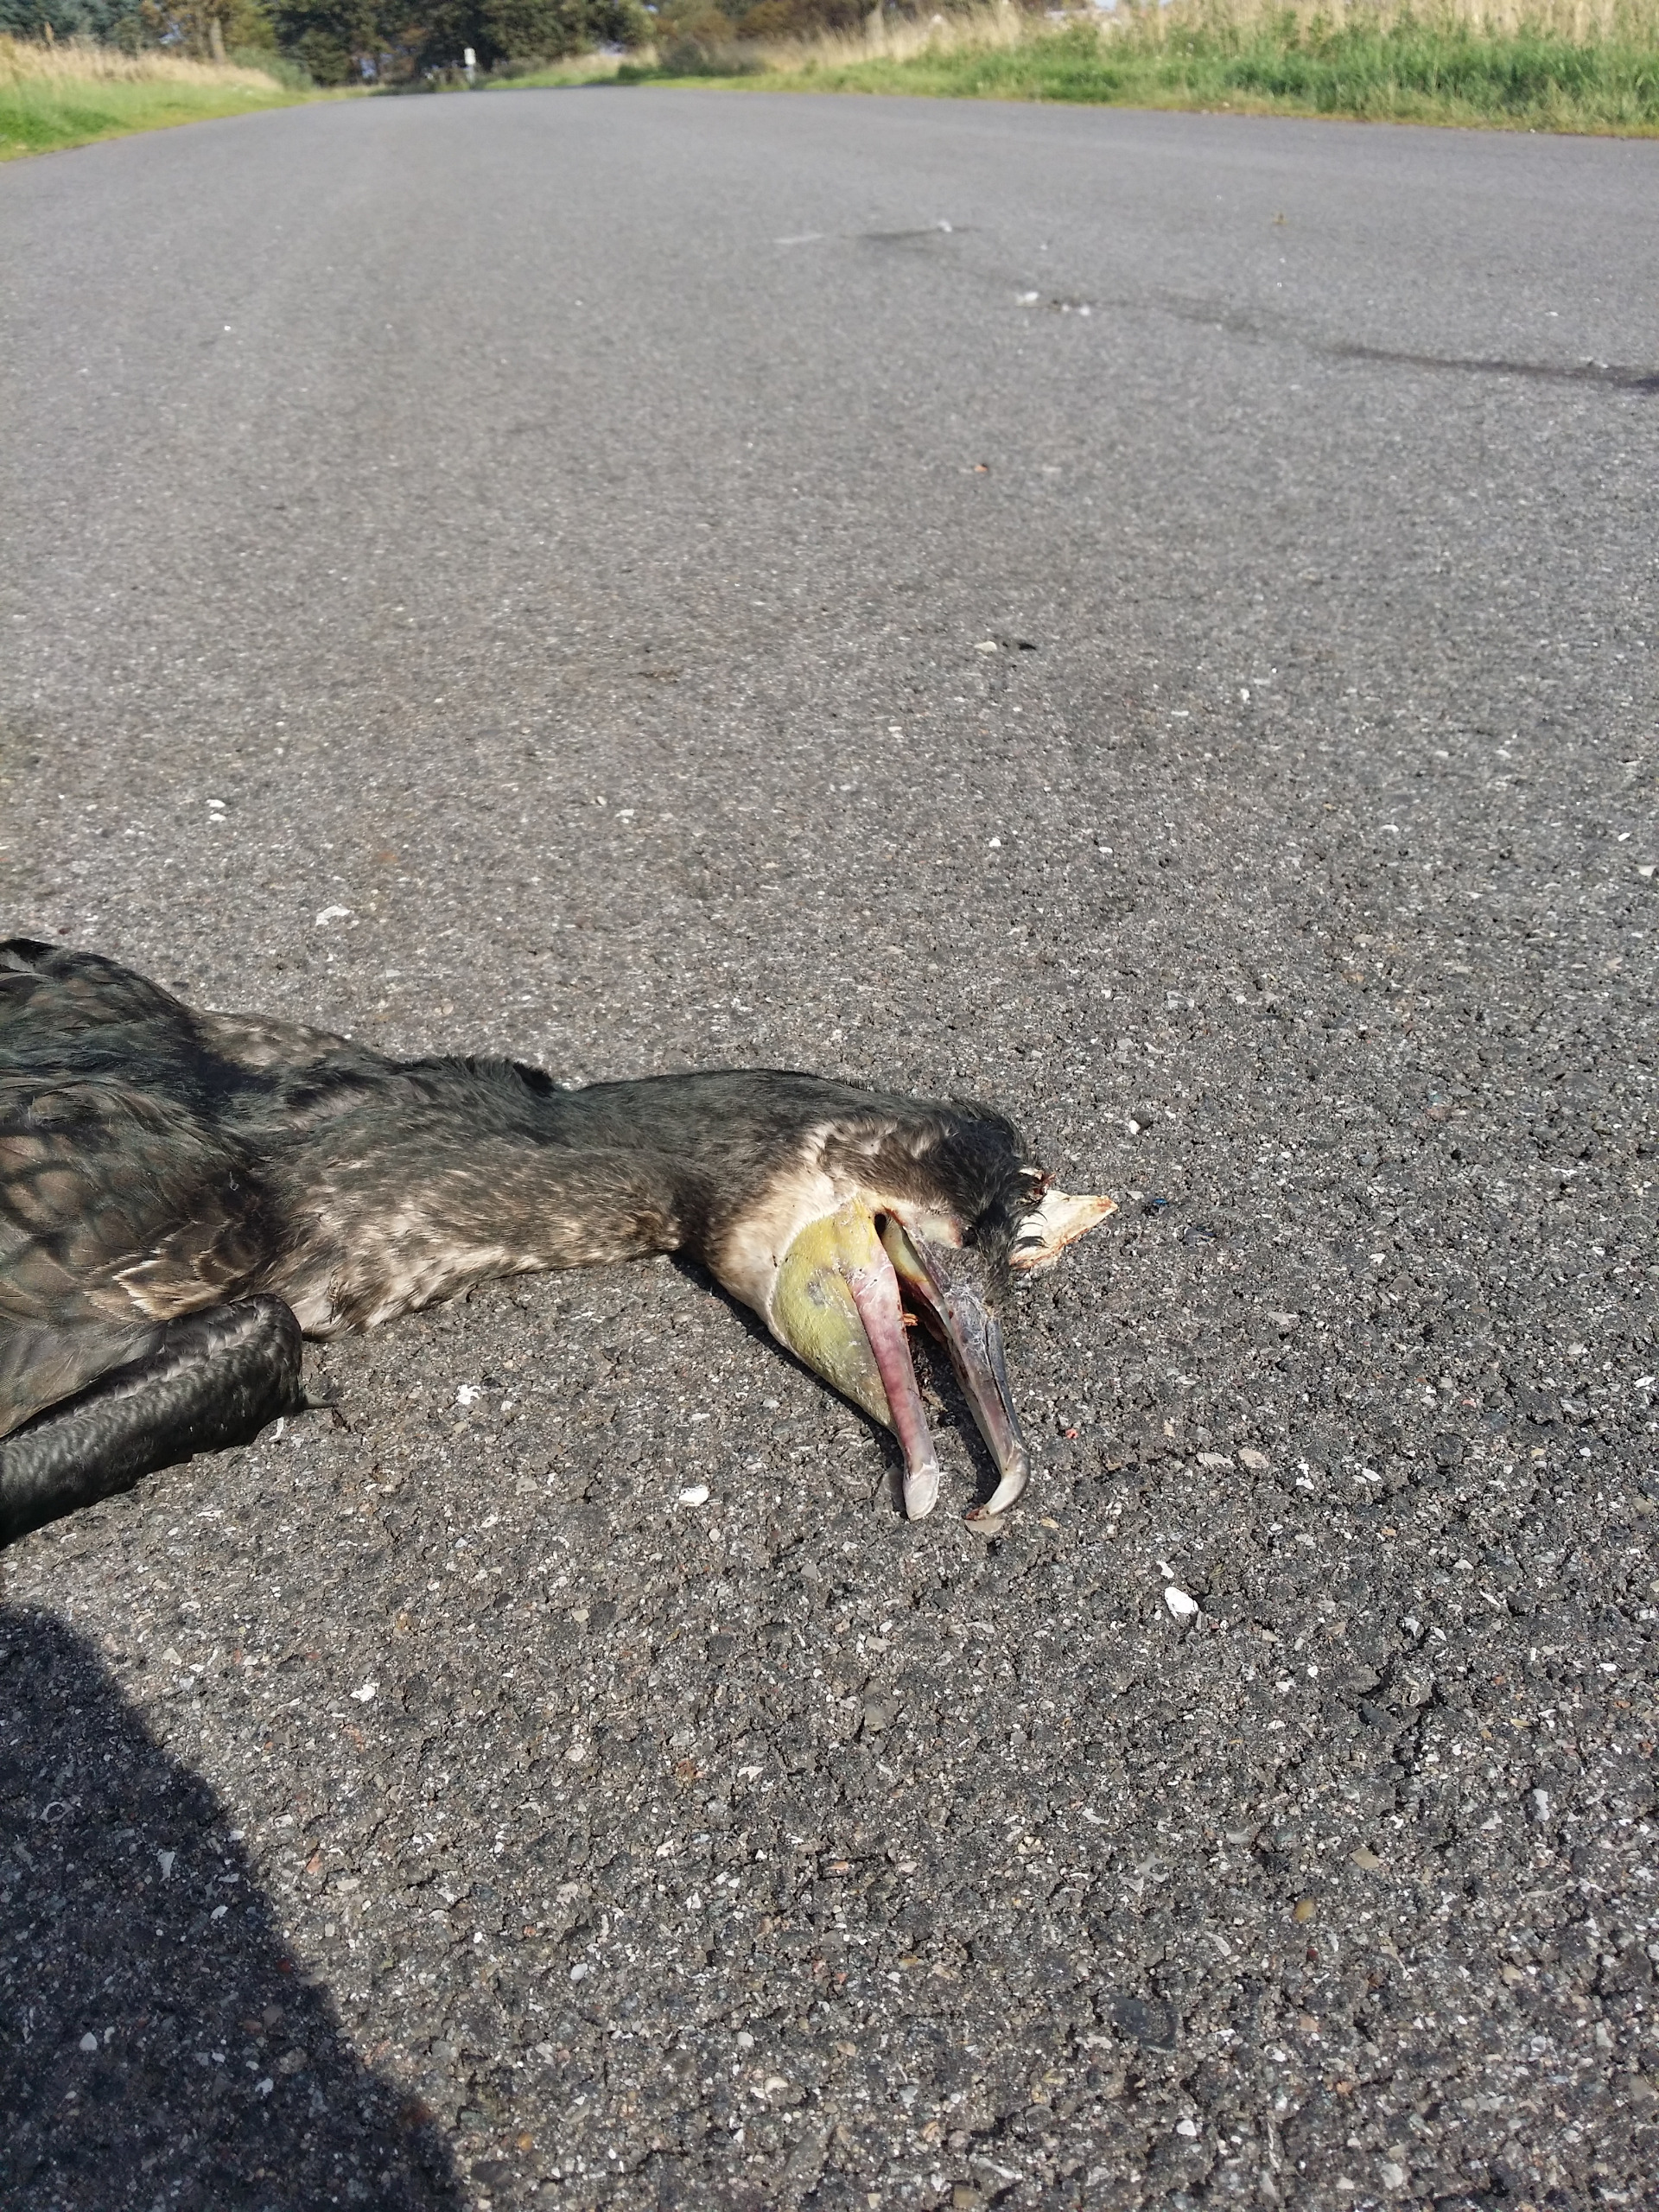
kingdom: Animalia
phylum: Chordata
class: Aves
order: Suliformes
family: Phalacrocoracidae
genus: Phalacrocorax
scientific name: Phalacrocorax carbo
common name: Skarv
